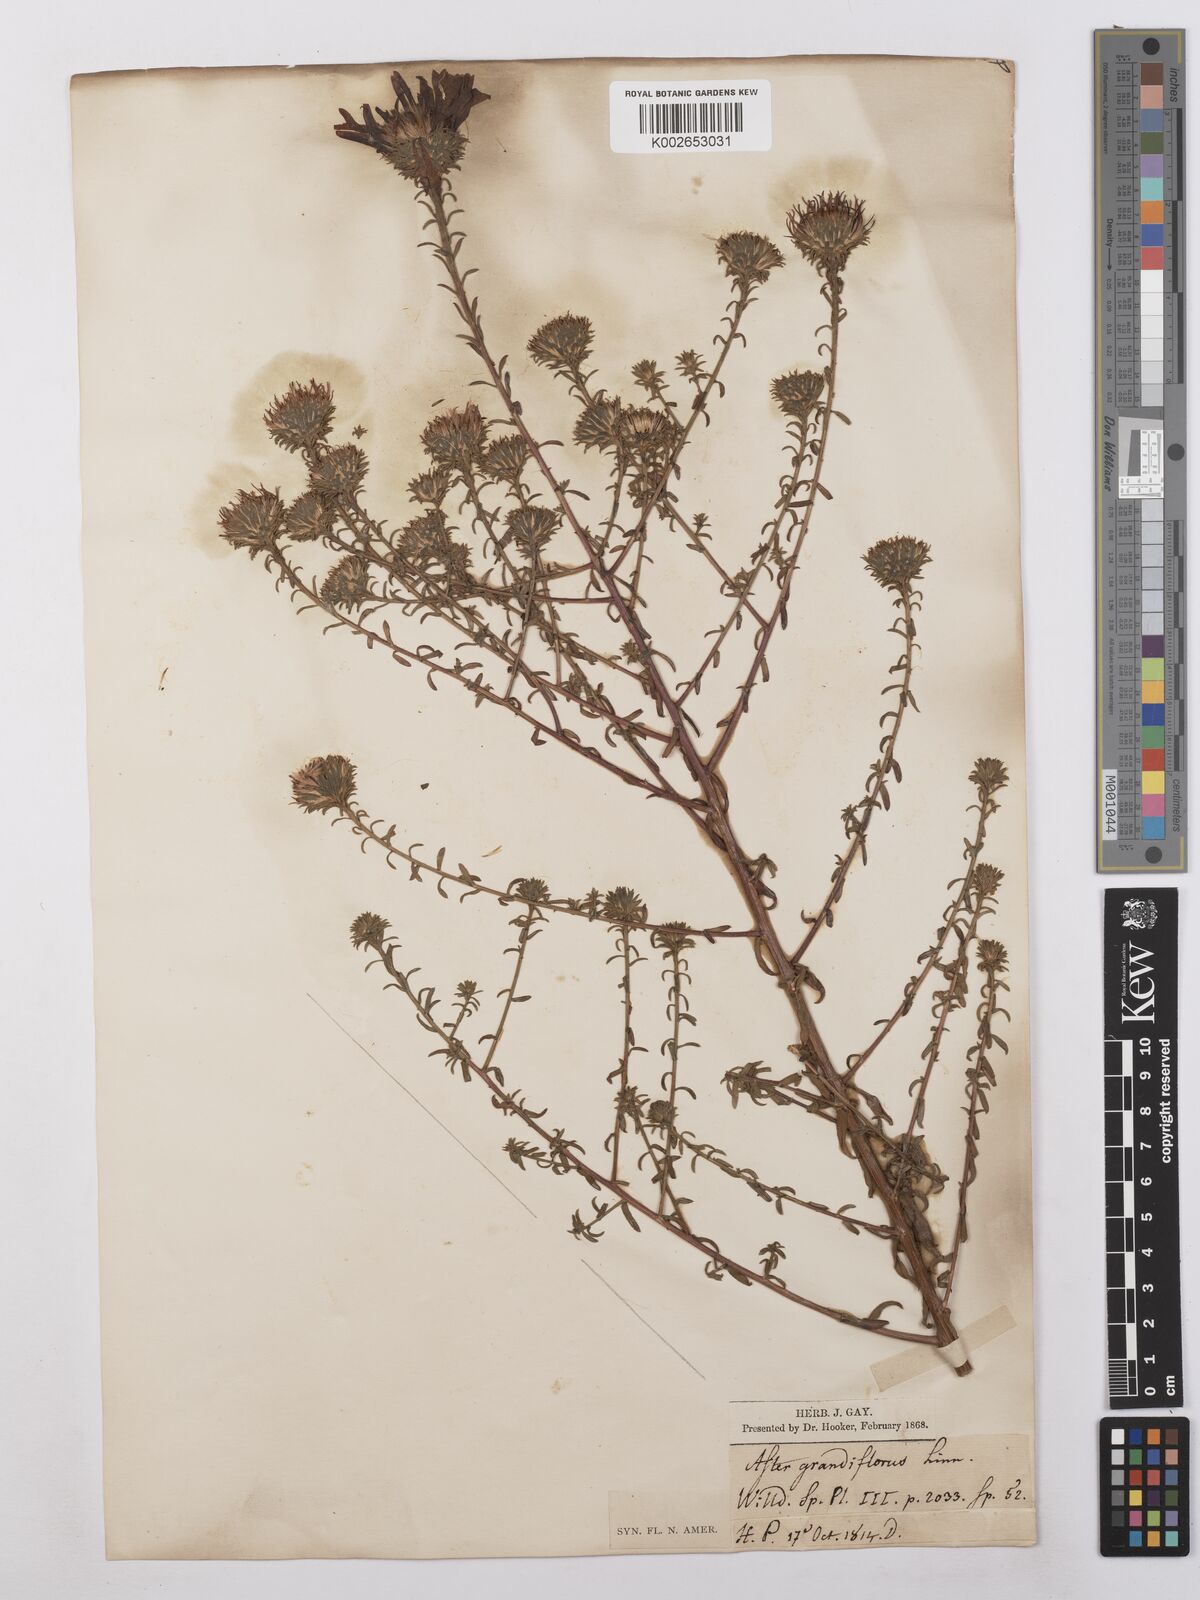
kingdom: Plantae
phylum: Tracheophyta
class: Magnoliopsida
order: Asterales
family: Asteraceae
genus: Symphyotrichum
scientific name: Symphyotrichum grandiflorum
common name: Big-head aster
